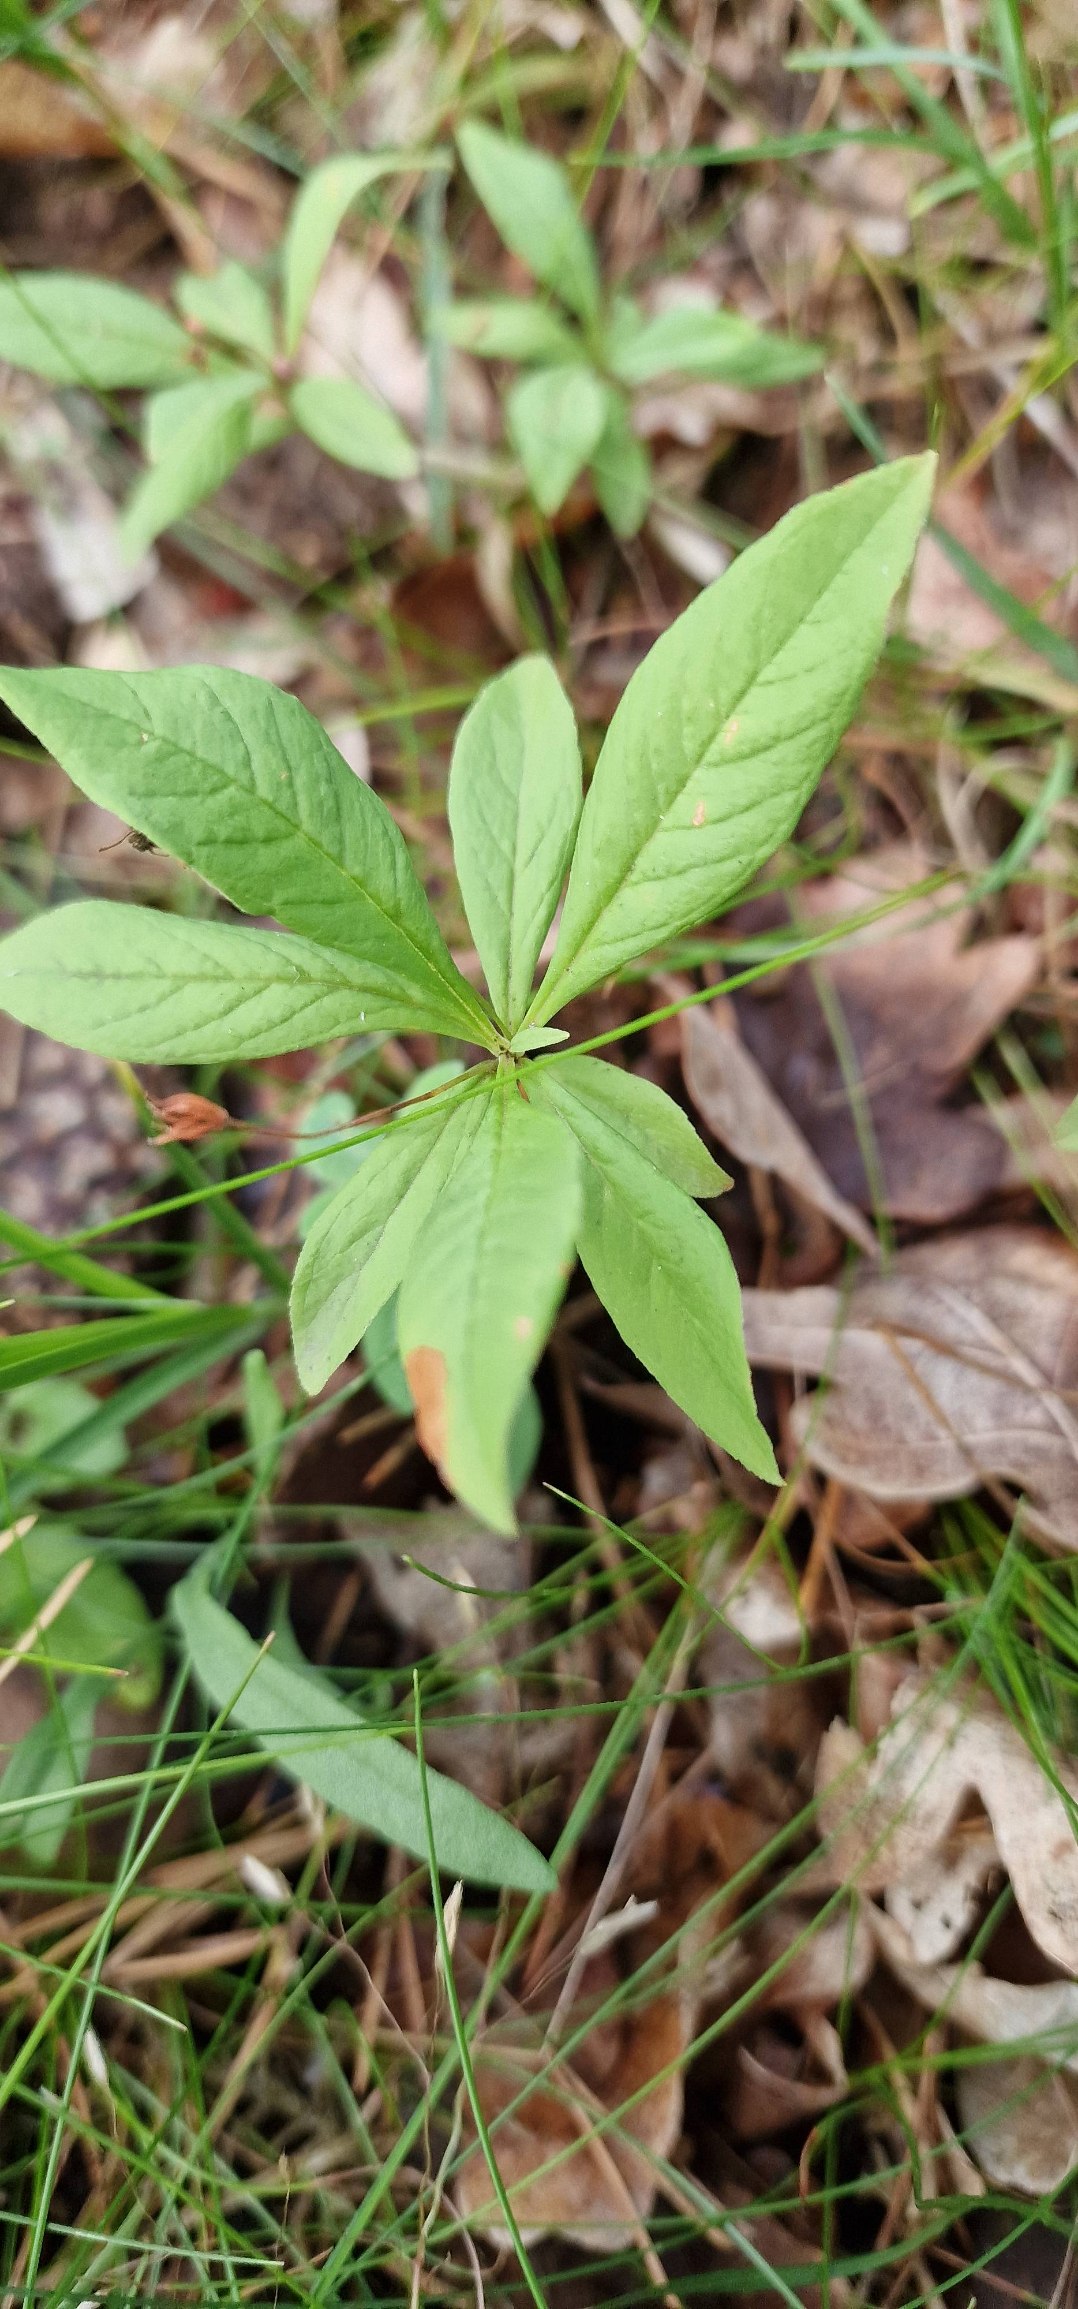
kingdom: Plantae
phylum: Tracheophyta
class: Magnoliopsida
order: Ericales
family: Primulaceae
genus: Lysimachia
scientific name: Lysimachia europaea
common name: Skovstjerne
